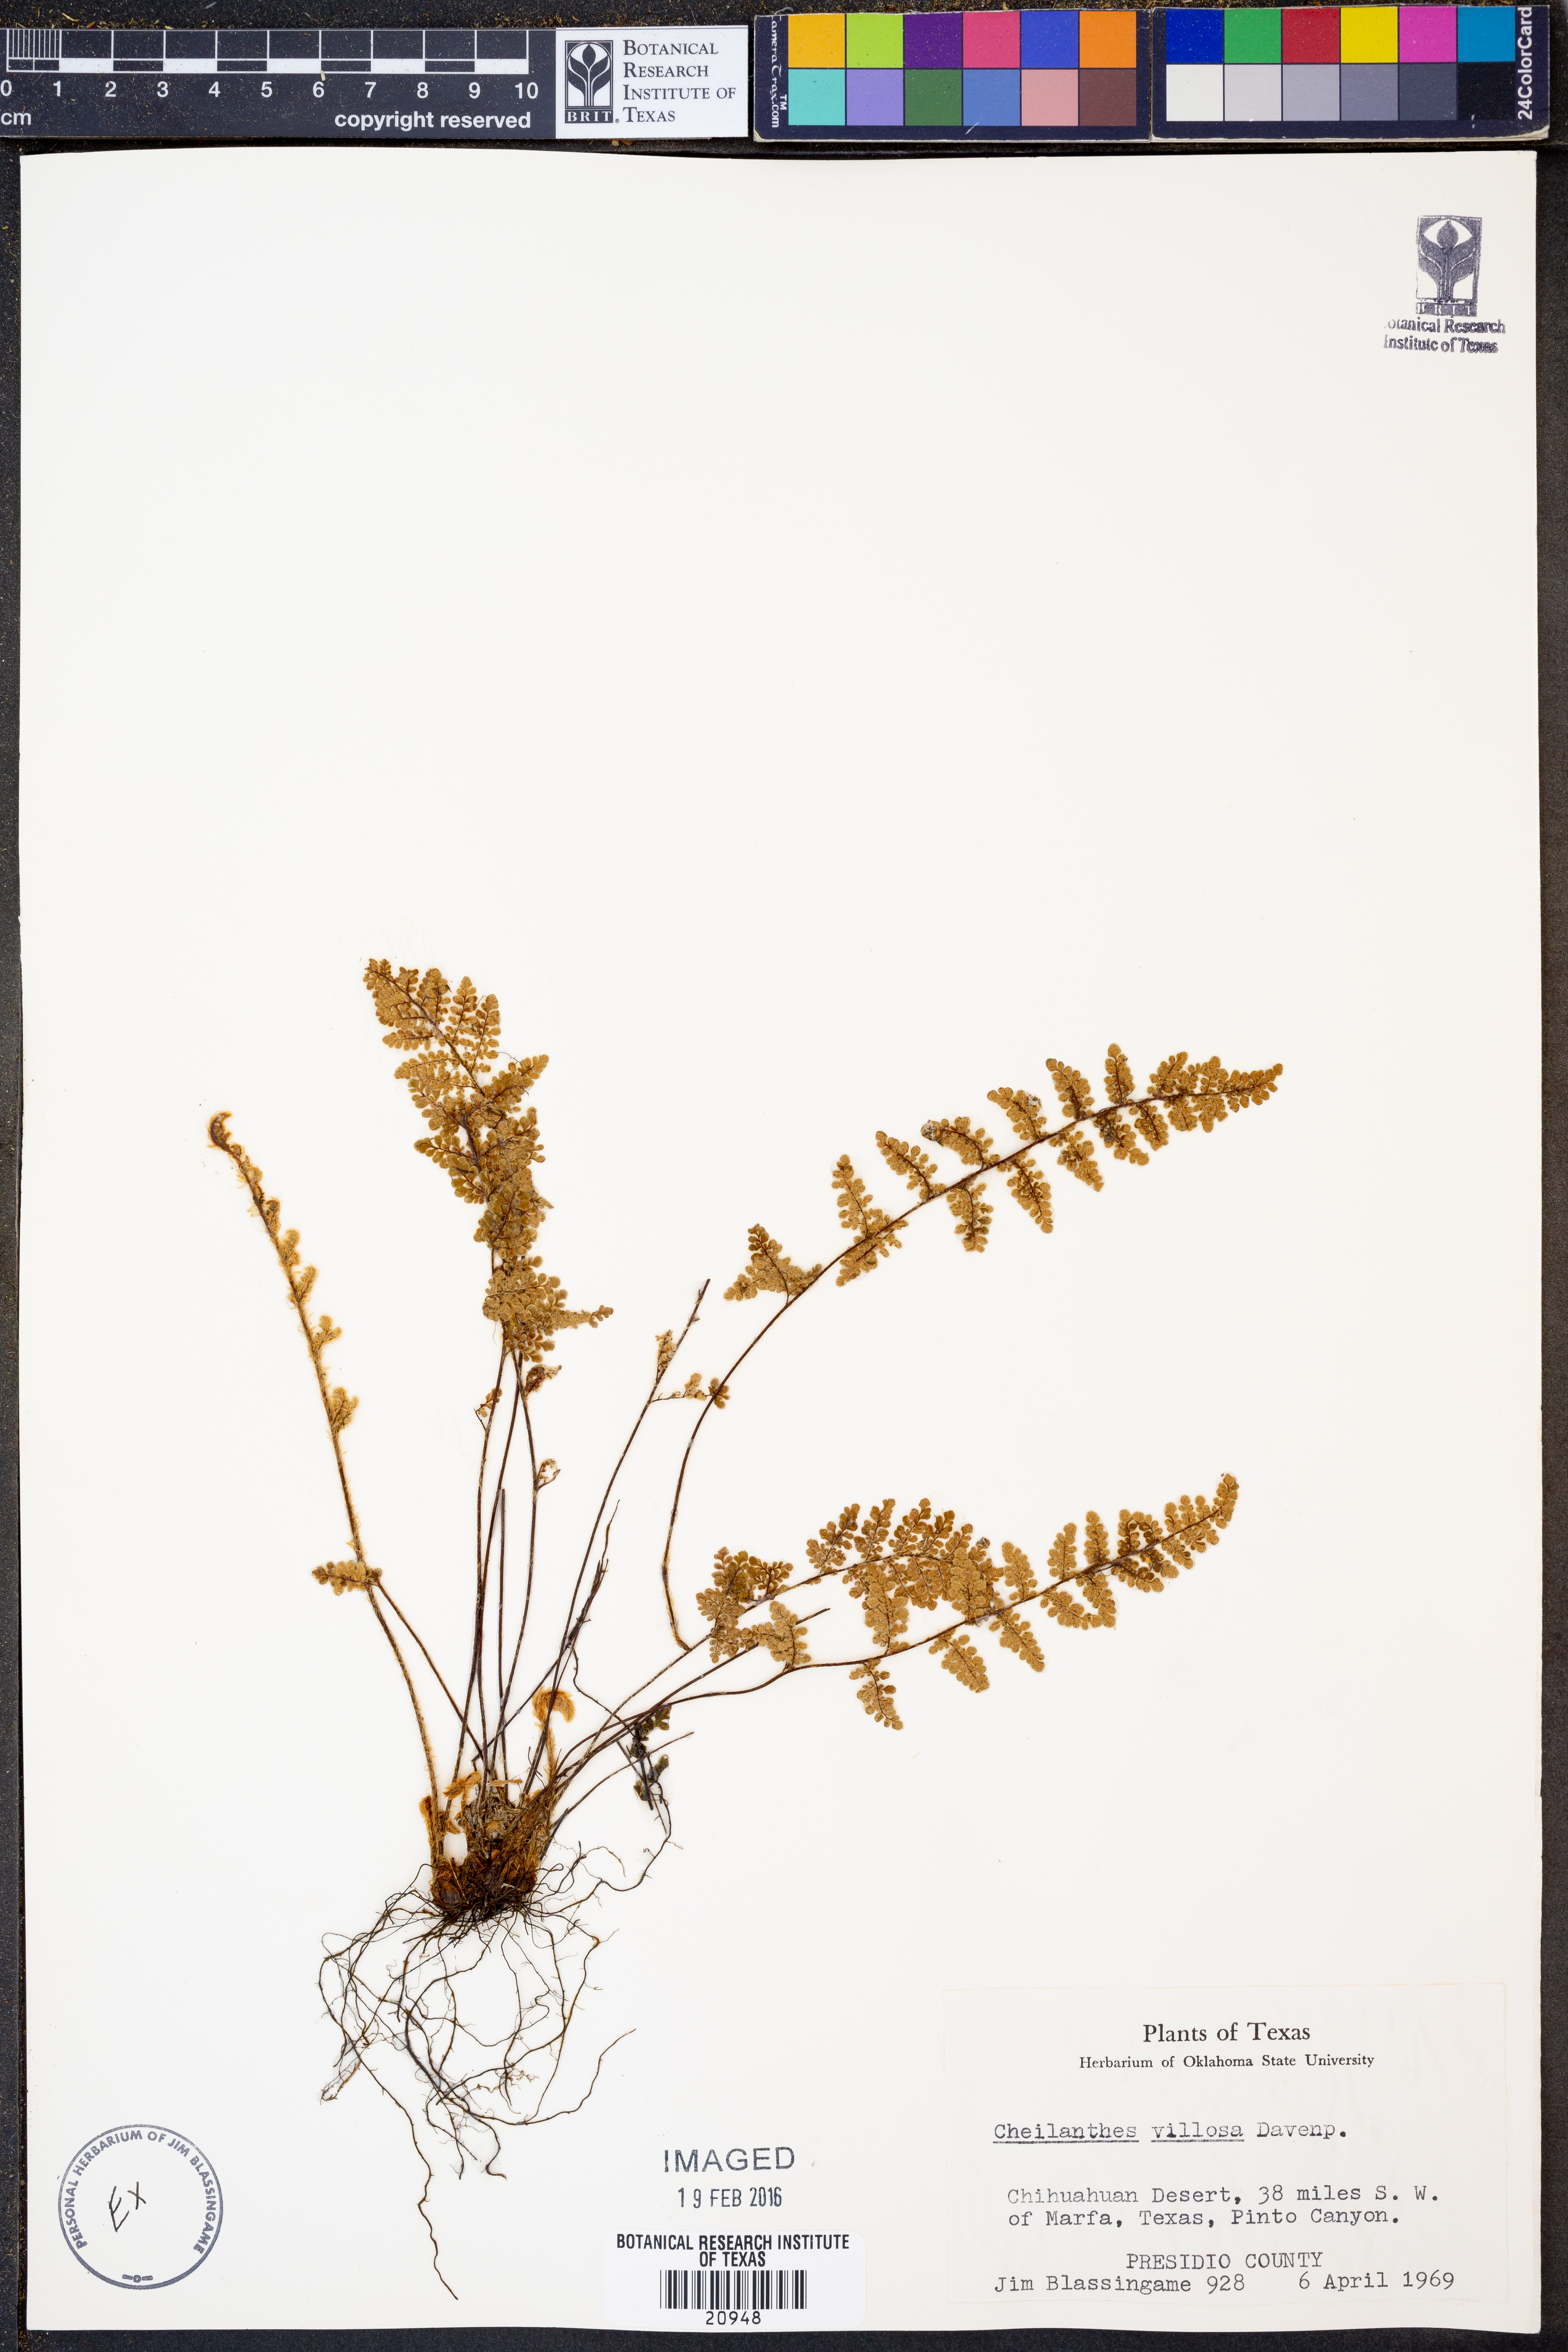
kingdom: Plantae
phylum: Tracheophyta
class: Polypodiopsida
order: Polypodiales
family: Pteridaceae
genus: Myriopteris
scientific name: Myriopteris windhamii
